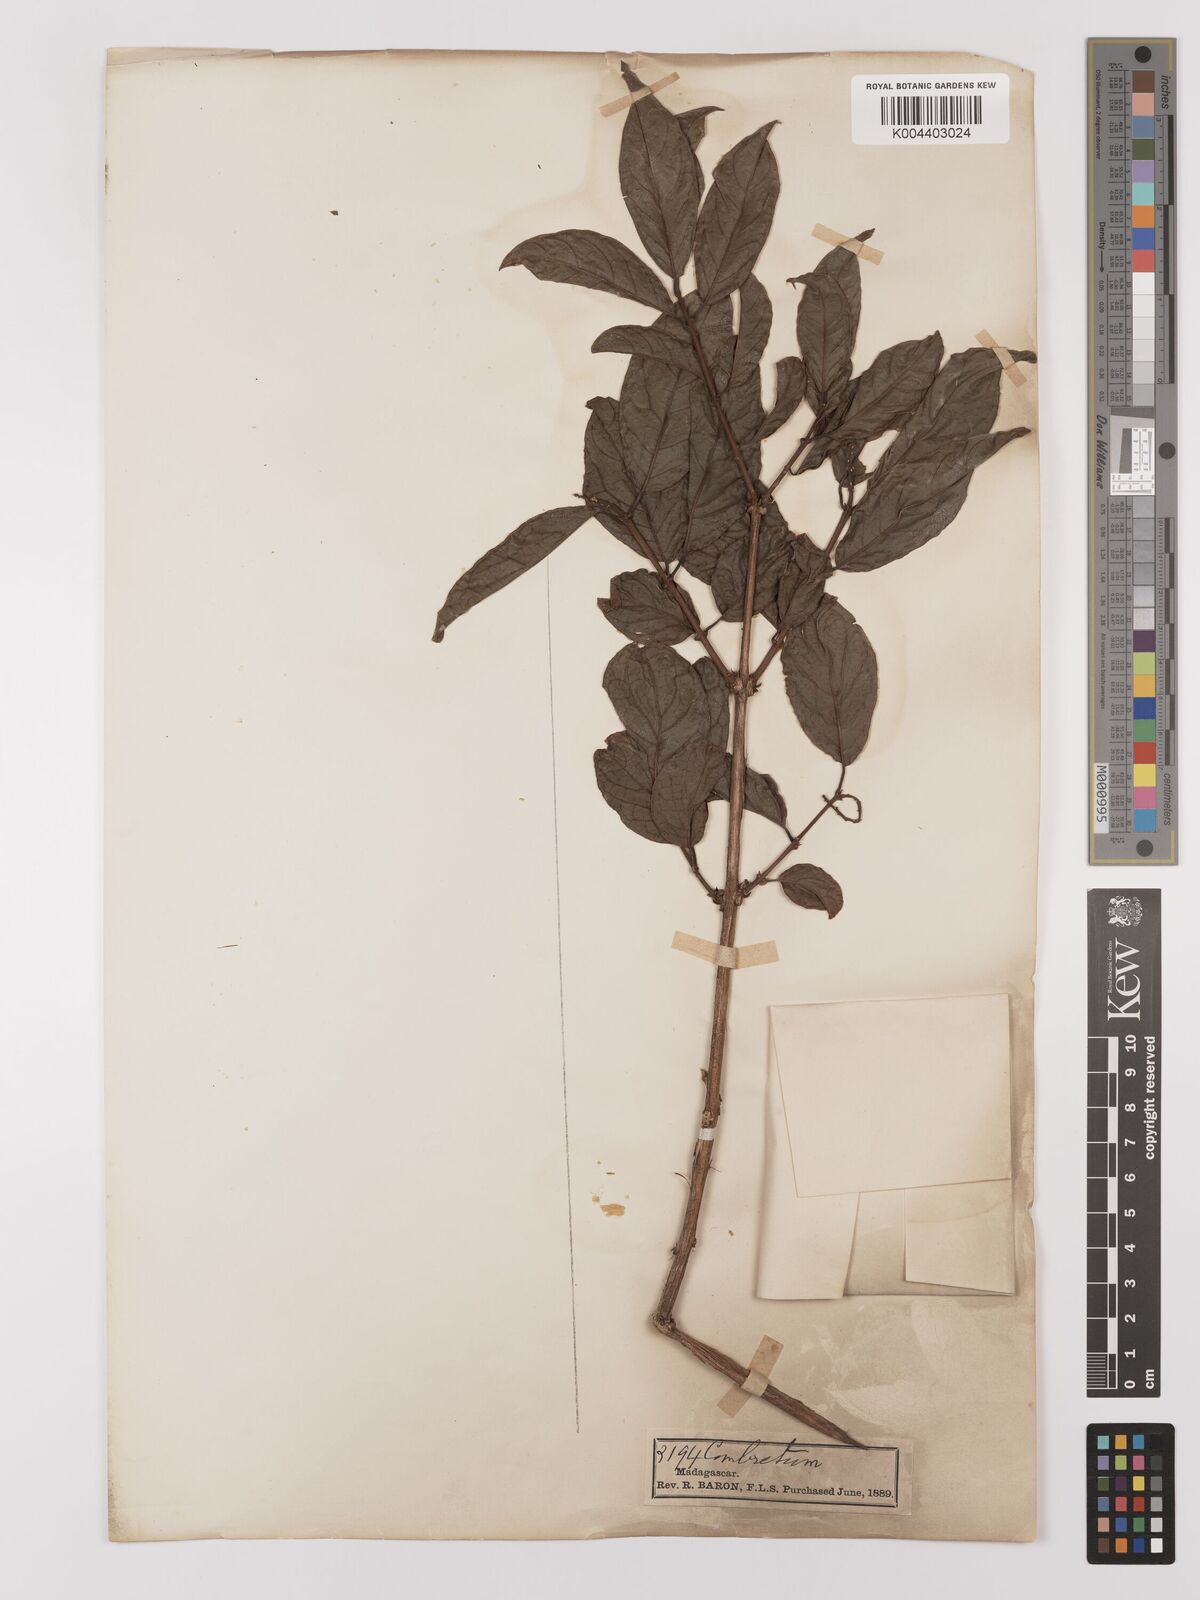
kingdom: Plantae
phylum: Tracheophyta
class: Magnoliopsida
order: Myrtales
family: Combretaceae
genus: Combretum
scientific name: Combretum
